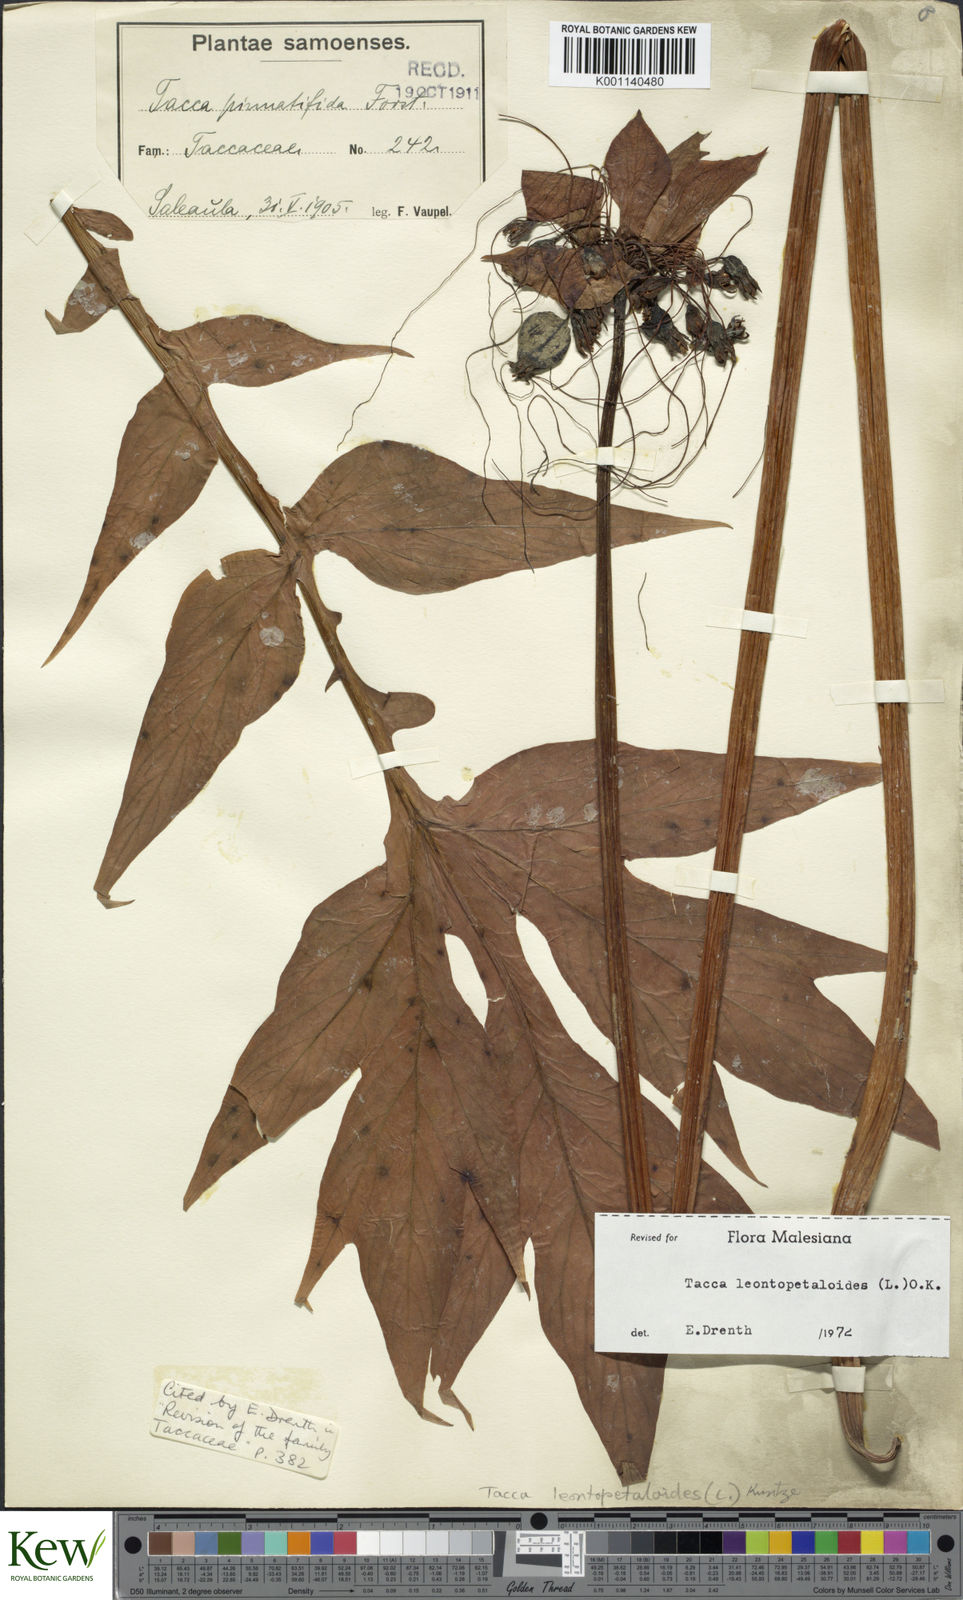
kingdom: Plantae
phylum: Tracheophyta
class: Liliopsida
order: Dioscoreales
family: Dioscoreaceae
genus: Tacca
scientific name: Tacca leontopetaloides
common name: Arrowroot
